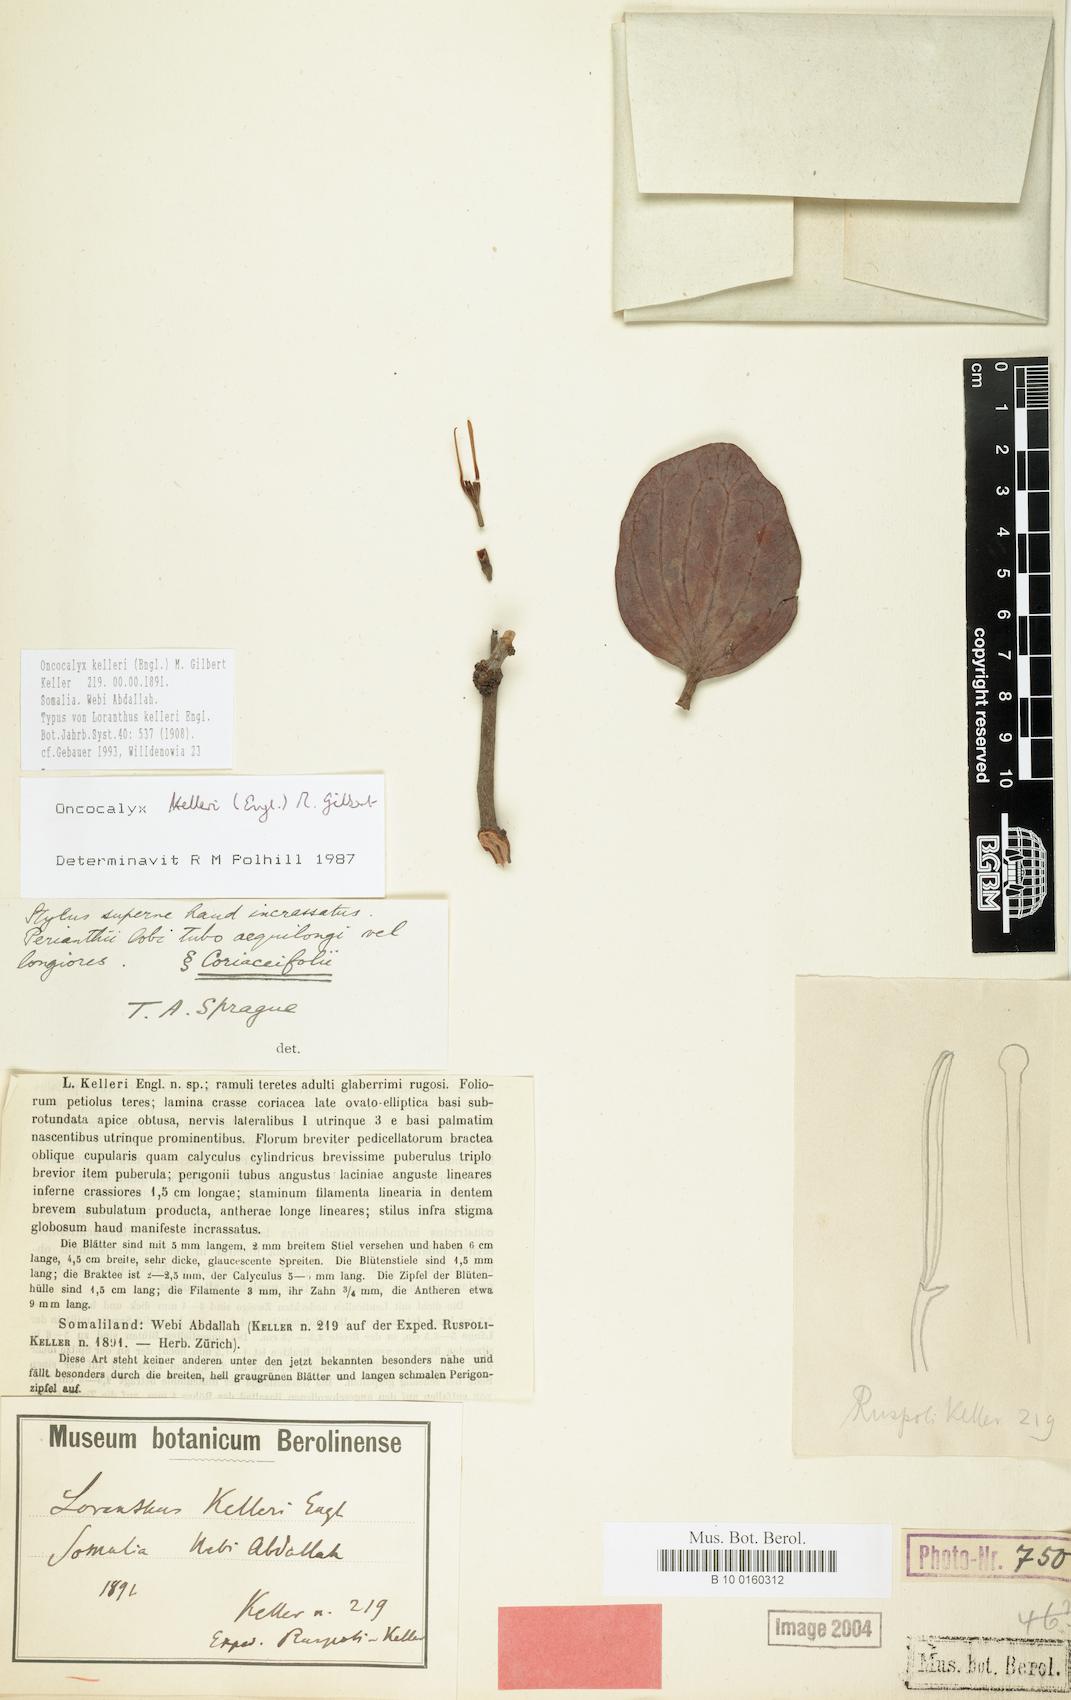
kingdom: Plantae
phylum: Tracheophyta
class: Magnoliopsida
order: Santalales
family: Loranthaceae
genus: Oncocalyx
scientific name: Oncocalyx kelleri
